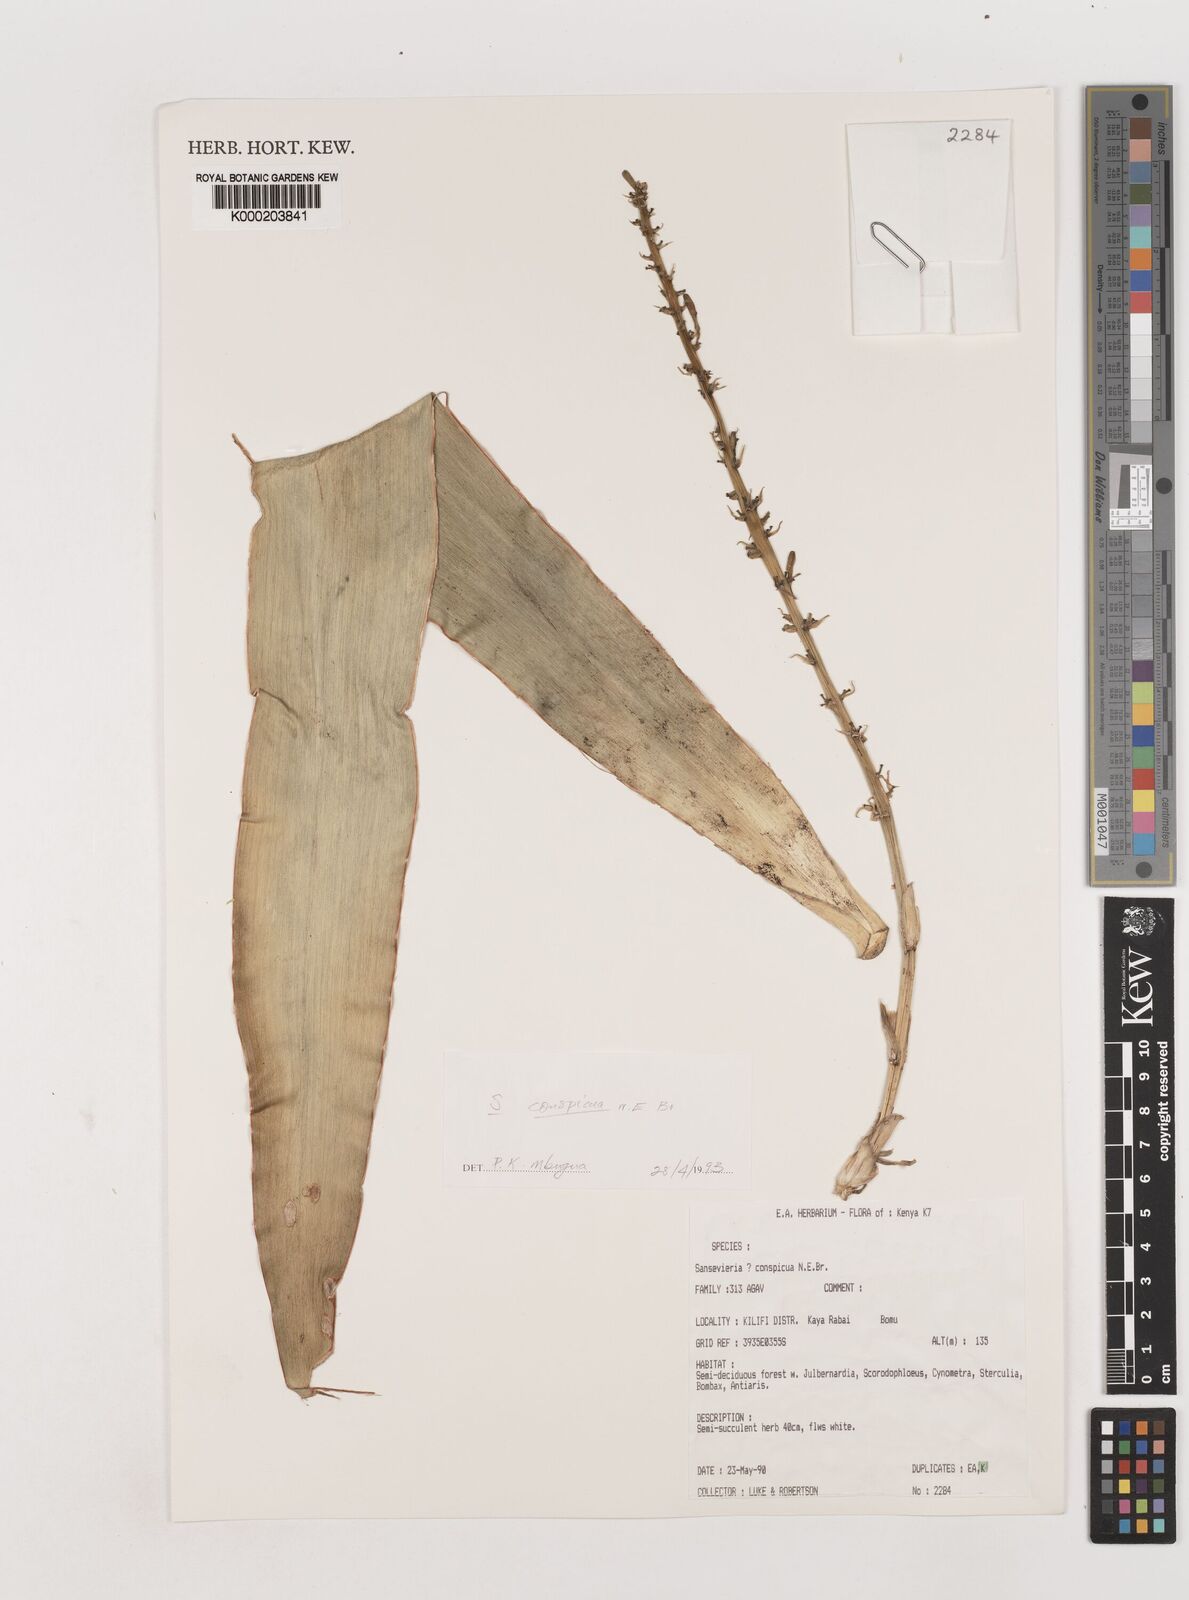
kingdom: Plantae
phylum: Tracheophyta
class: Liliopsida
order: Asparagales
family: Asparagaceae
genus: Dracaena
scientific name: Dracaena conspicua
